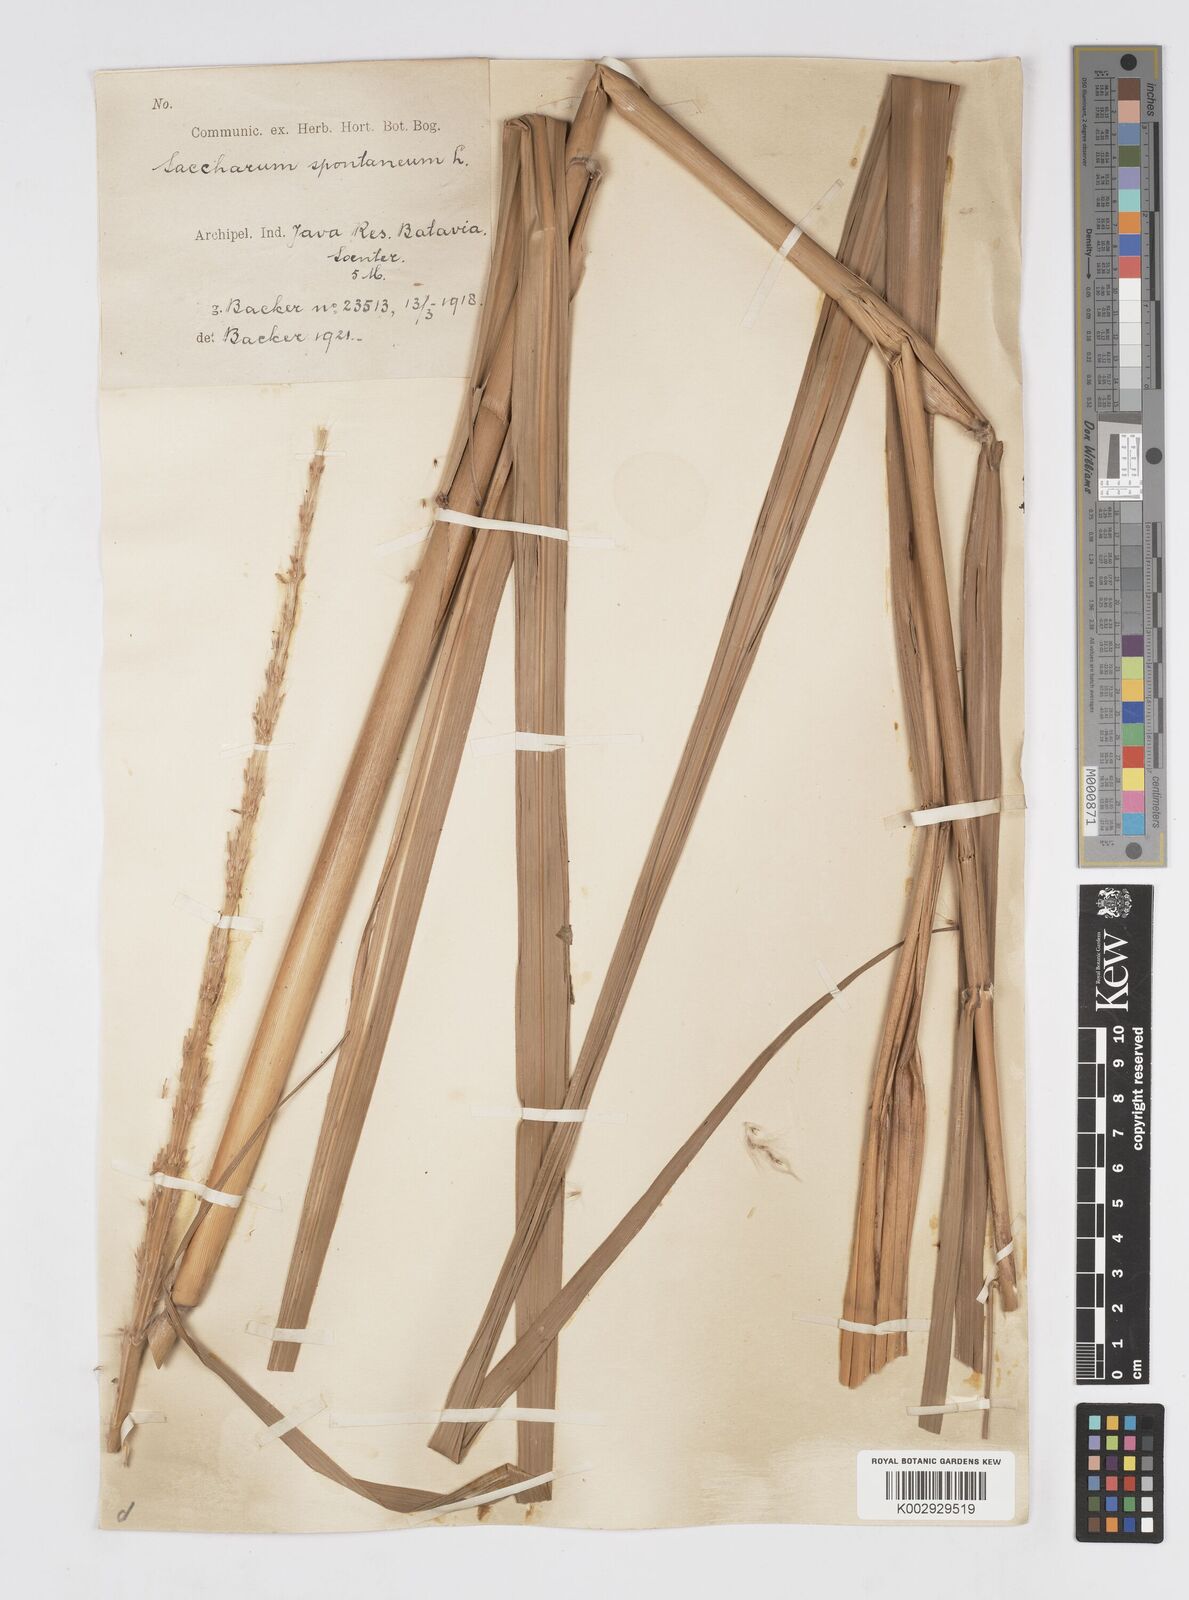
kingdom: Plantae
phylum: Tracheophyta
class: Liliopsida
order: Poales
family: Poaceae
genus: Saccharum
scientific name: Saccharum spontaneum
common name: Wild sugarcane
